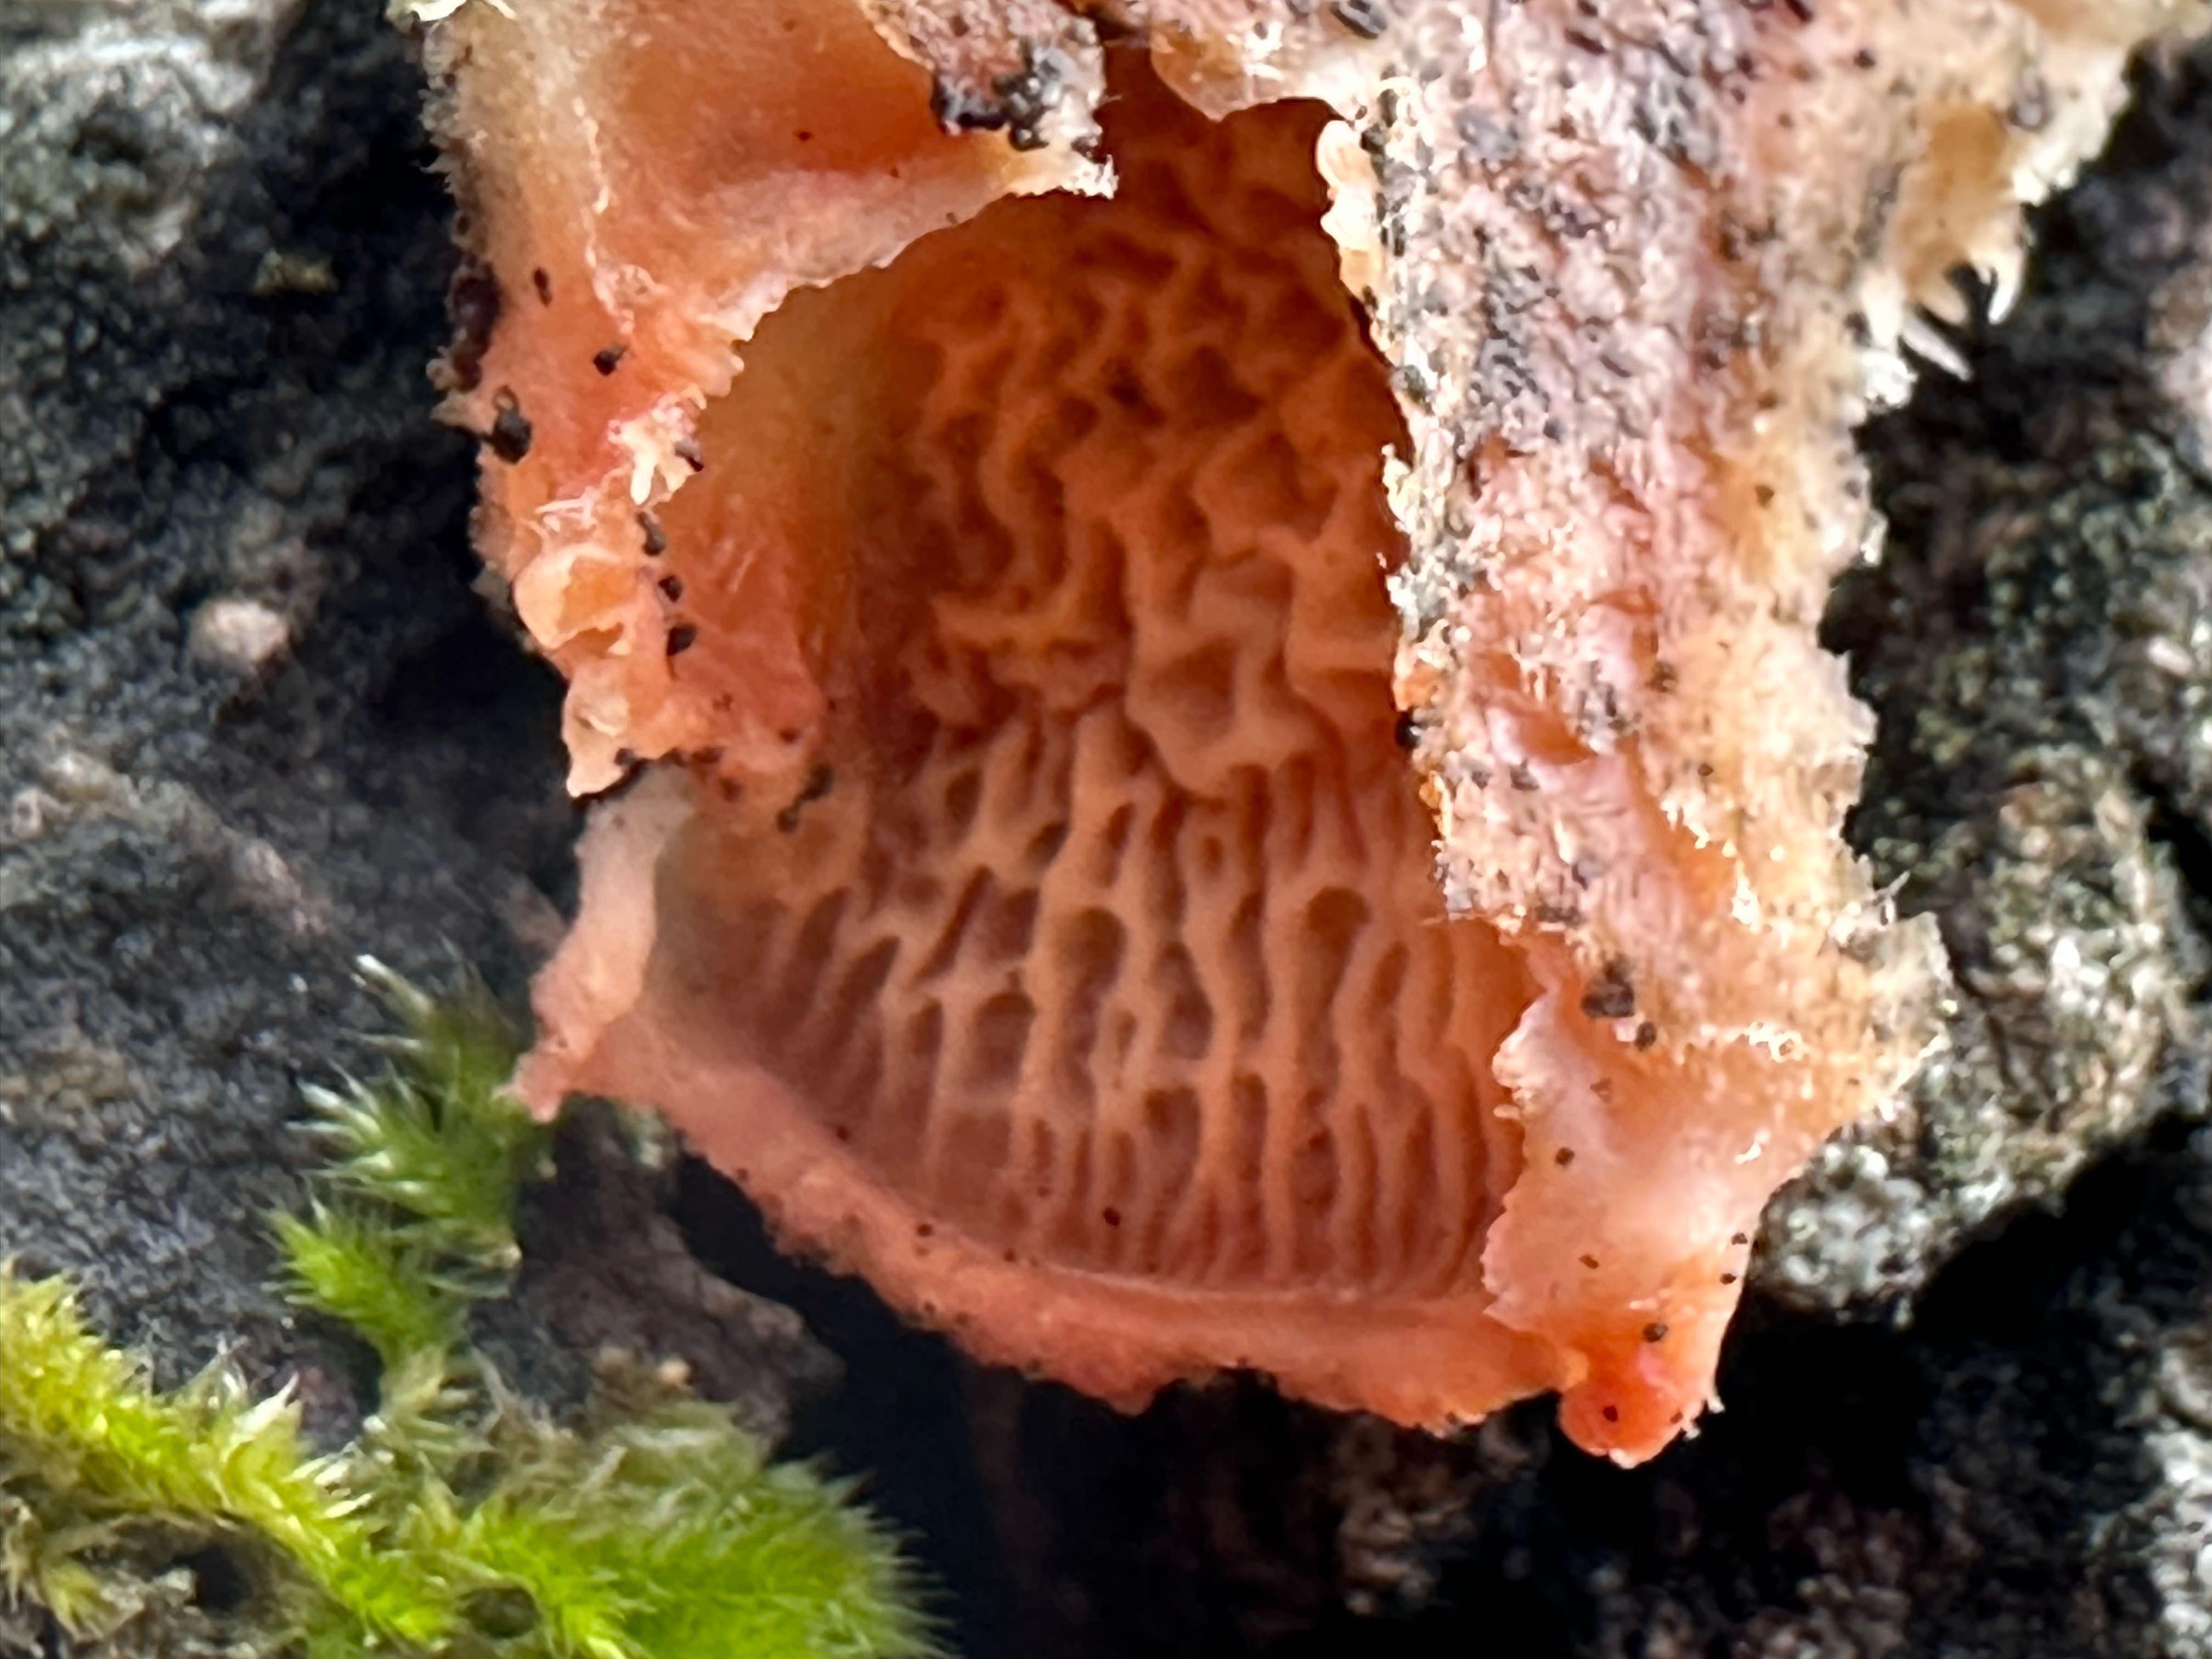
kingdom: Fungi
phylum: Basidiomycota
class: Agaricomycetes
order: Polyporales
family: Meruliaceae
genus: Phlebia
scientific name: Phlebia tremellosa
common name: bævrende åresvamp
